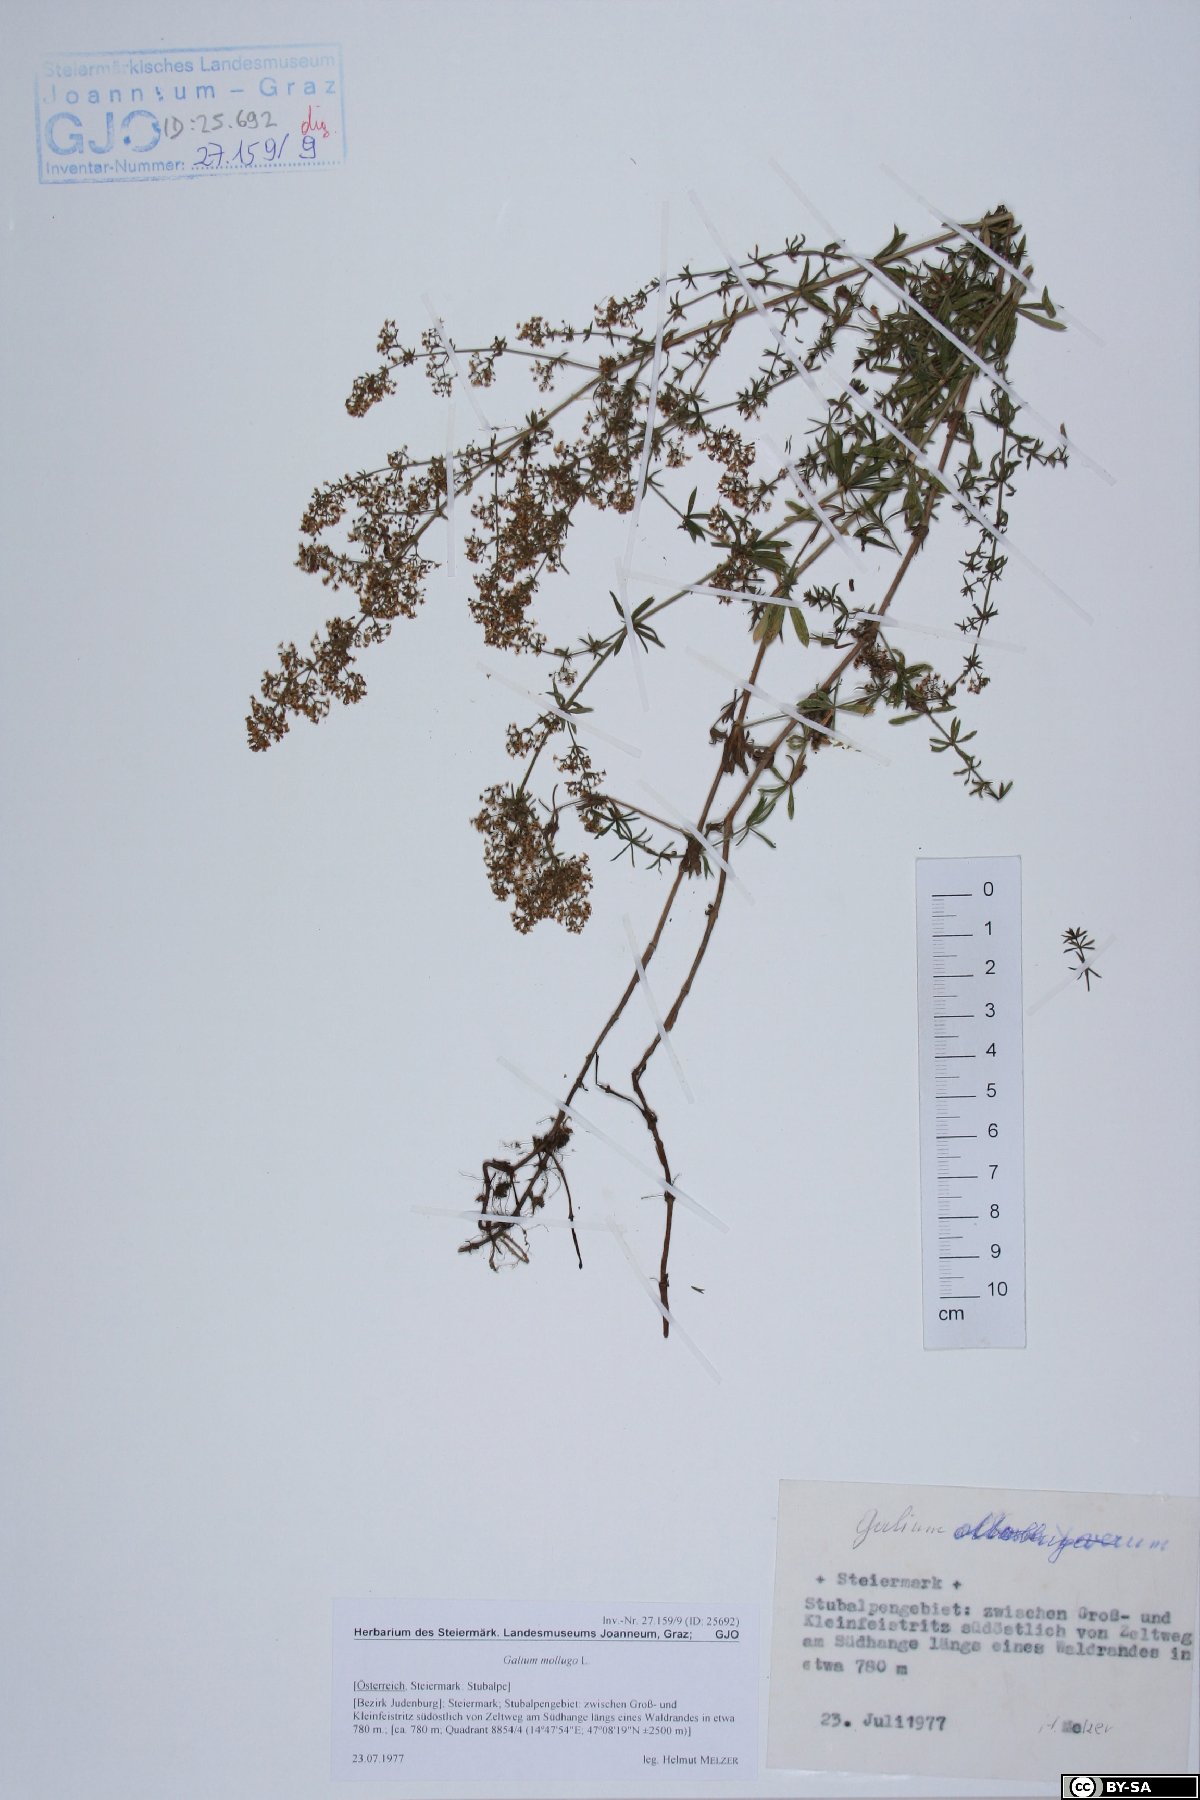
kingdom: Plantae
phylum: Tracheophyta
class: Magnoliopsida
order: Gentianales
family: Rubiaceae
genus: Galium
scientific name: Galium mollugo
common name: Hedge bedstraw
